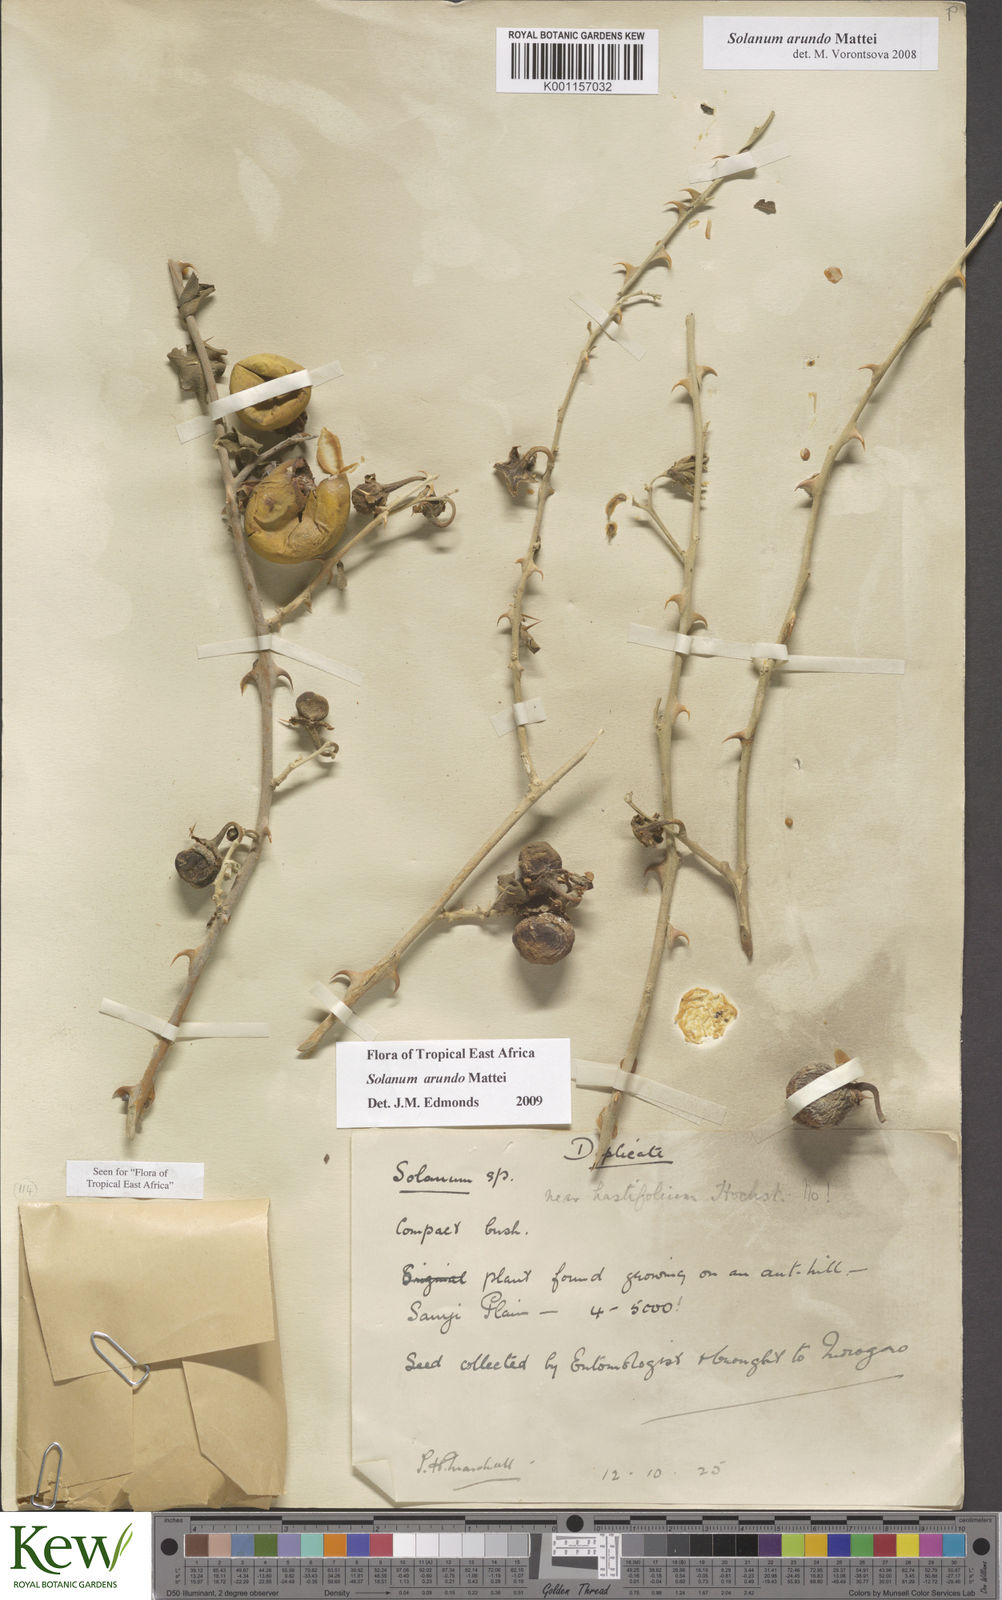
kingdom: Plantae
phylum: Tracheophyta
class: Magnoliopsida
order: Solanales
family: Solanaceae
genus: Solanum
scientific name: Solanum arundo
